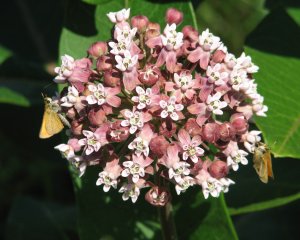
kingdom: Animalia
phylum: Arthropoda
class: Insecta
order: Lepidoptera
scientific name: Lepidoptera
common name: Butterflies
